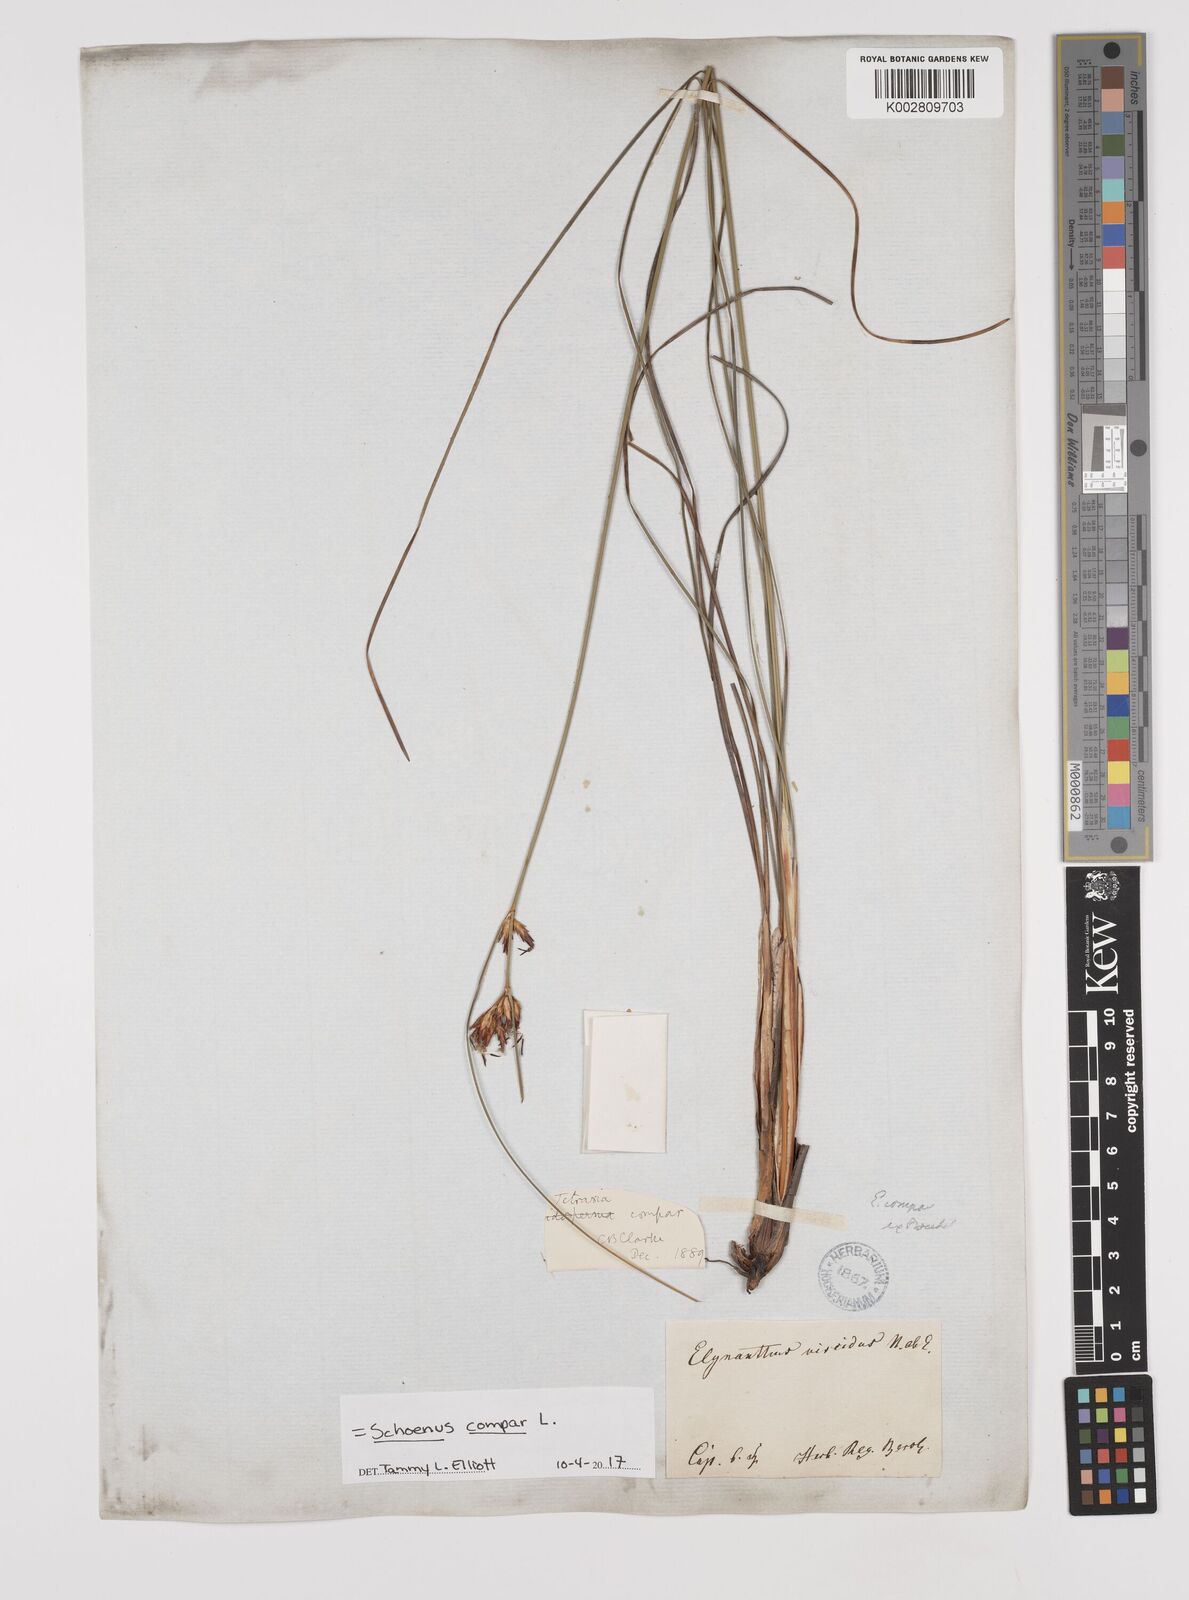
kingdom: Plantae
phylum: Tracheophyta
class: Liliopsida
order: Poales
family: Cyperaceae
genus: Schoenus
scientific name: Schoenus compar
